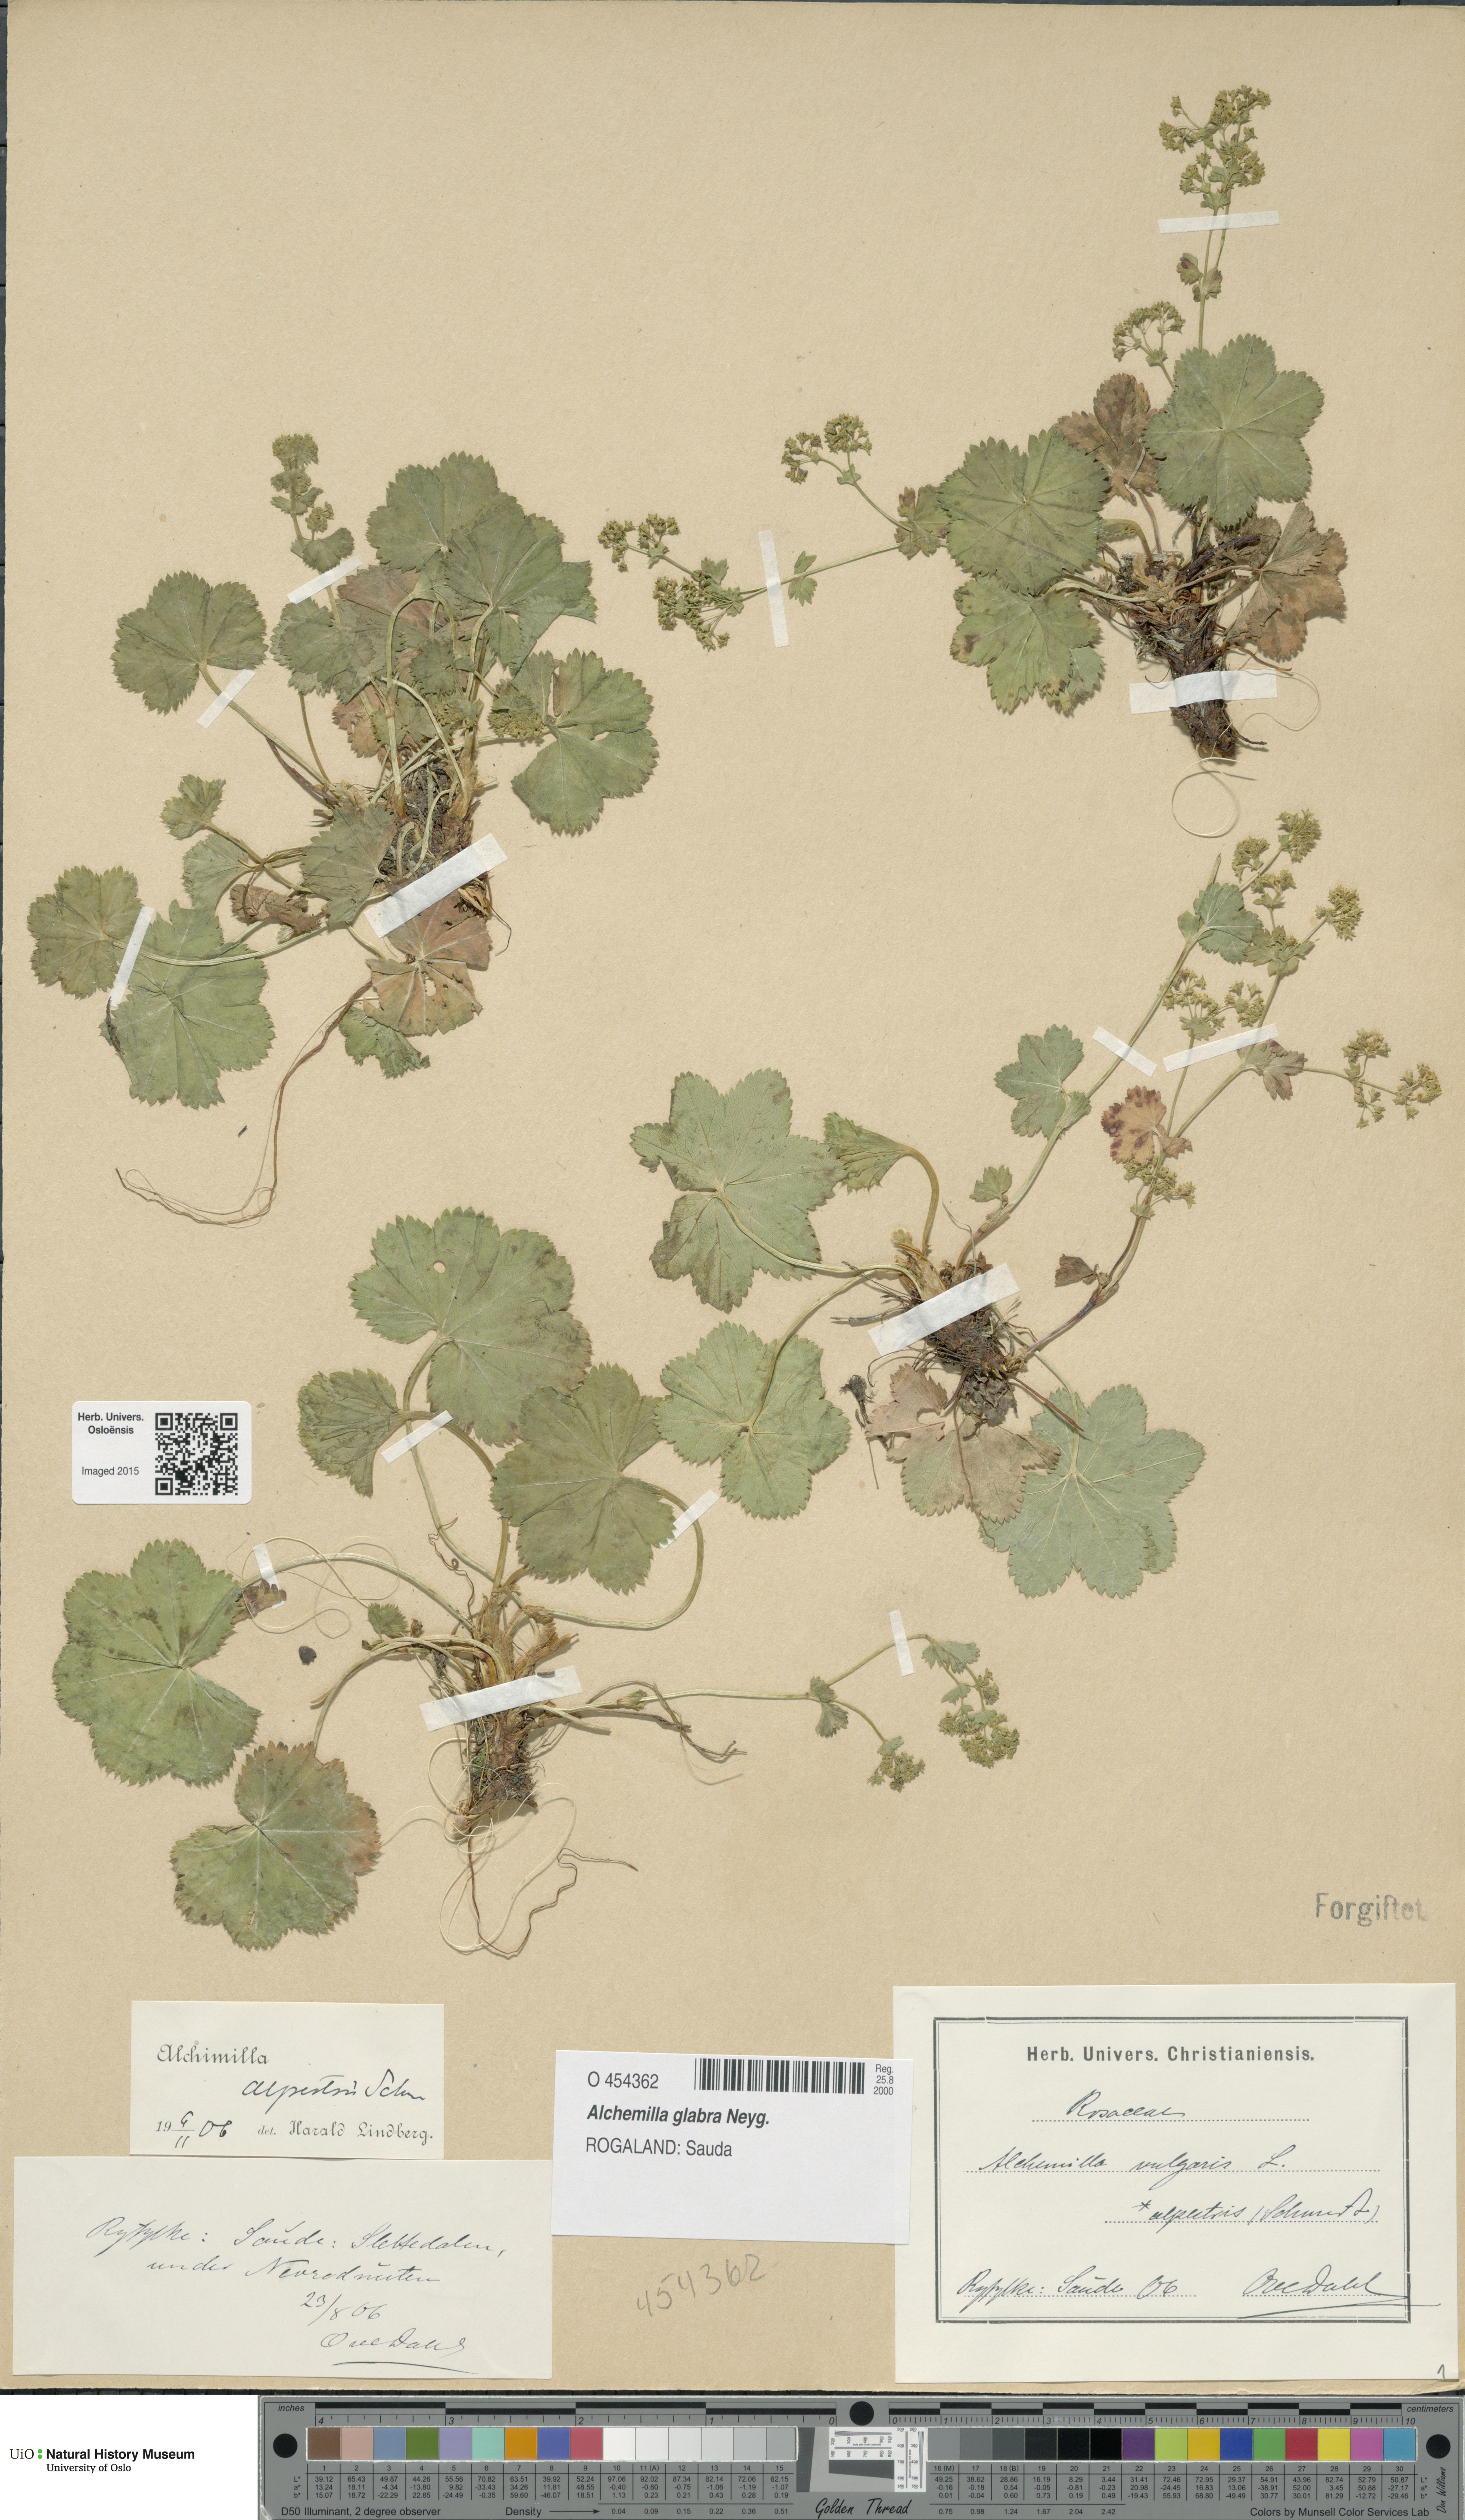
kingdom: Plantae
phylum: Tracheophyta
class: Magnoliopsida
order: Rosales
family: Rosaceae
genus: Alchemilla
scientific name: Alchemilla glabra
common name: Smooth lady's-mantle
